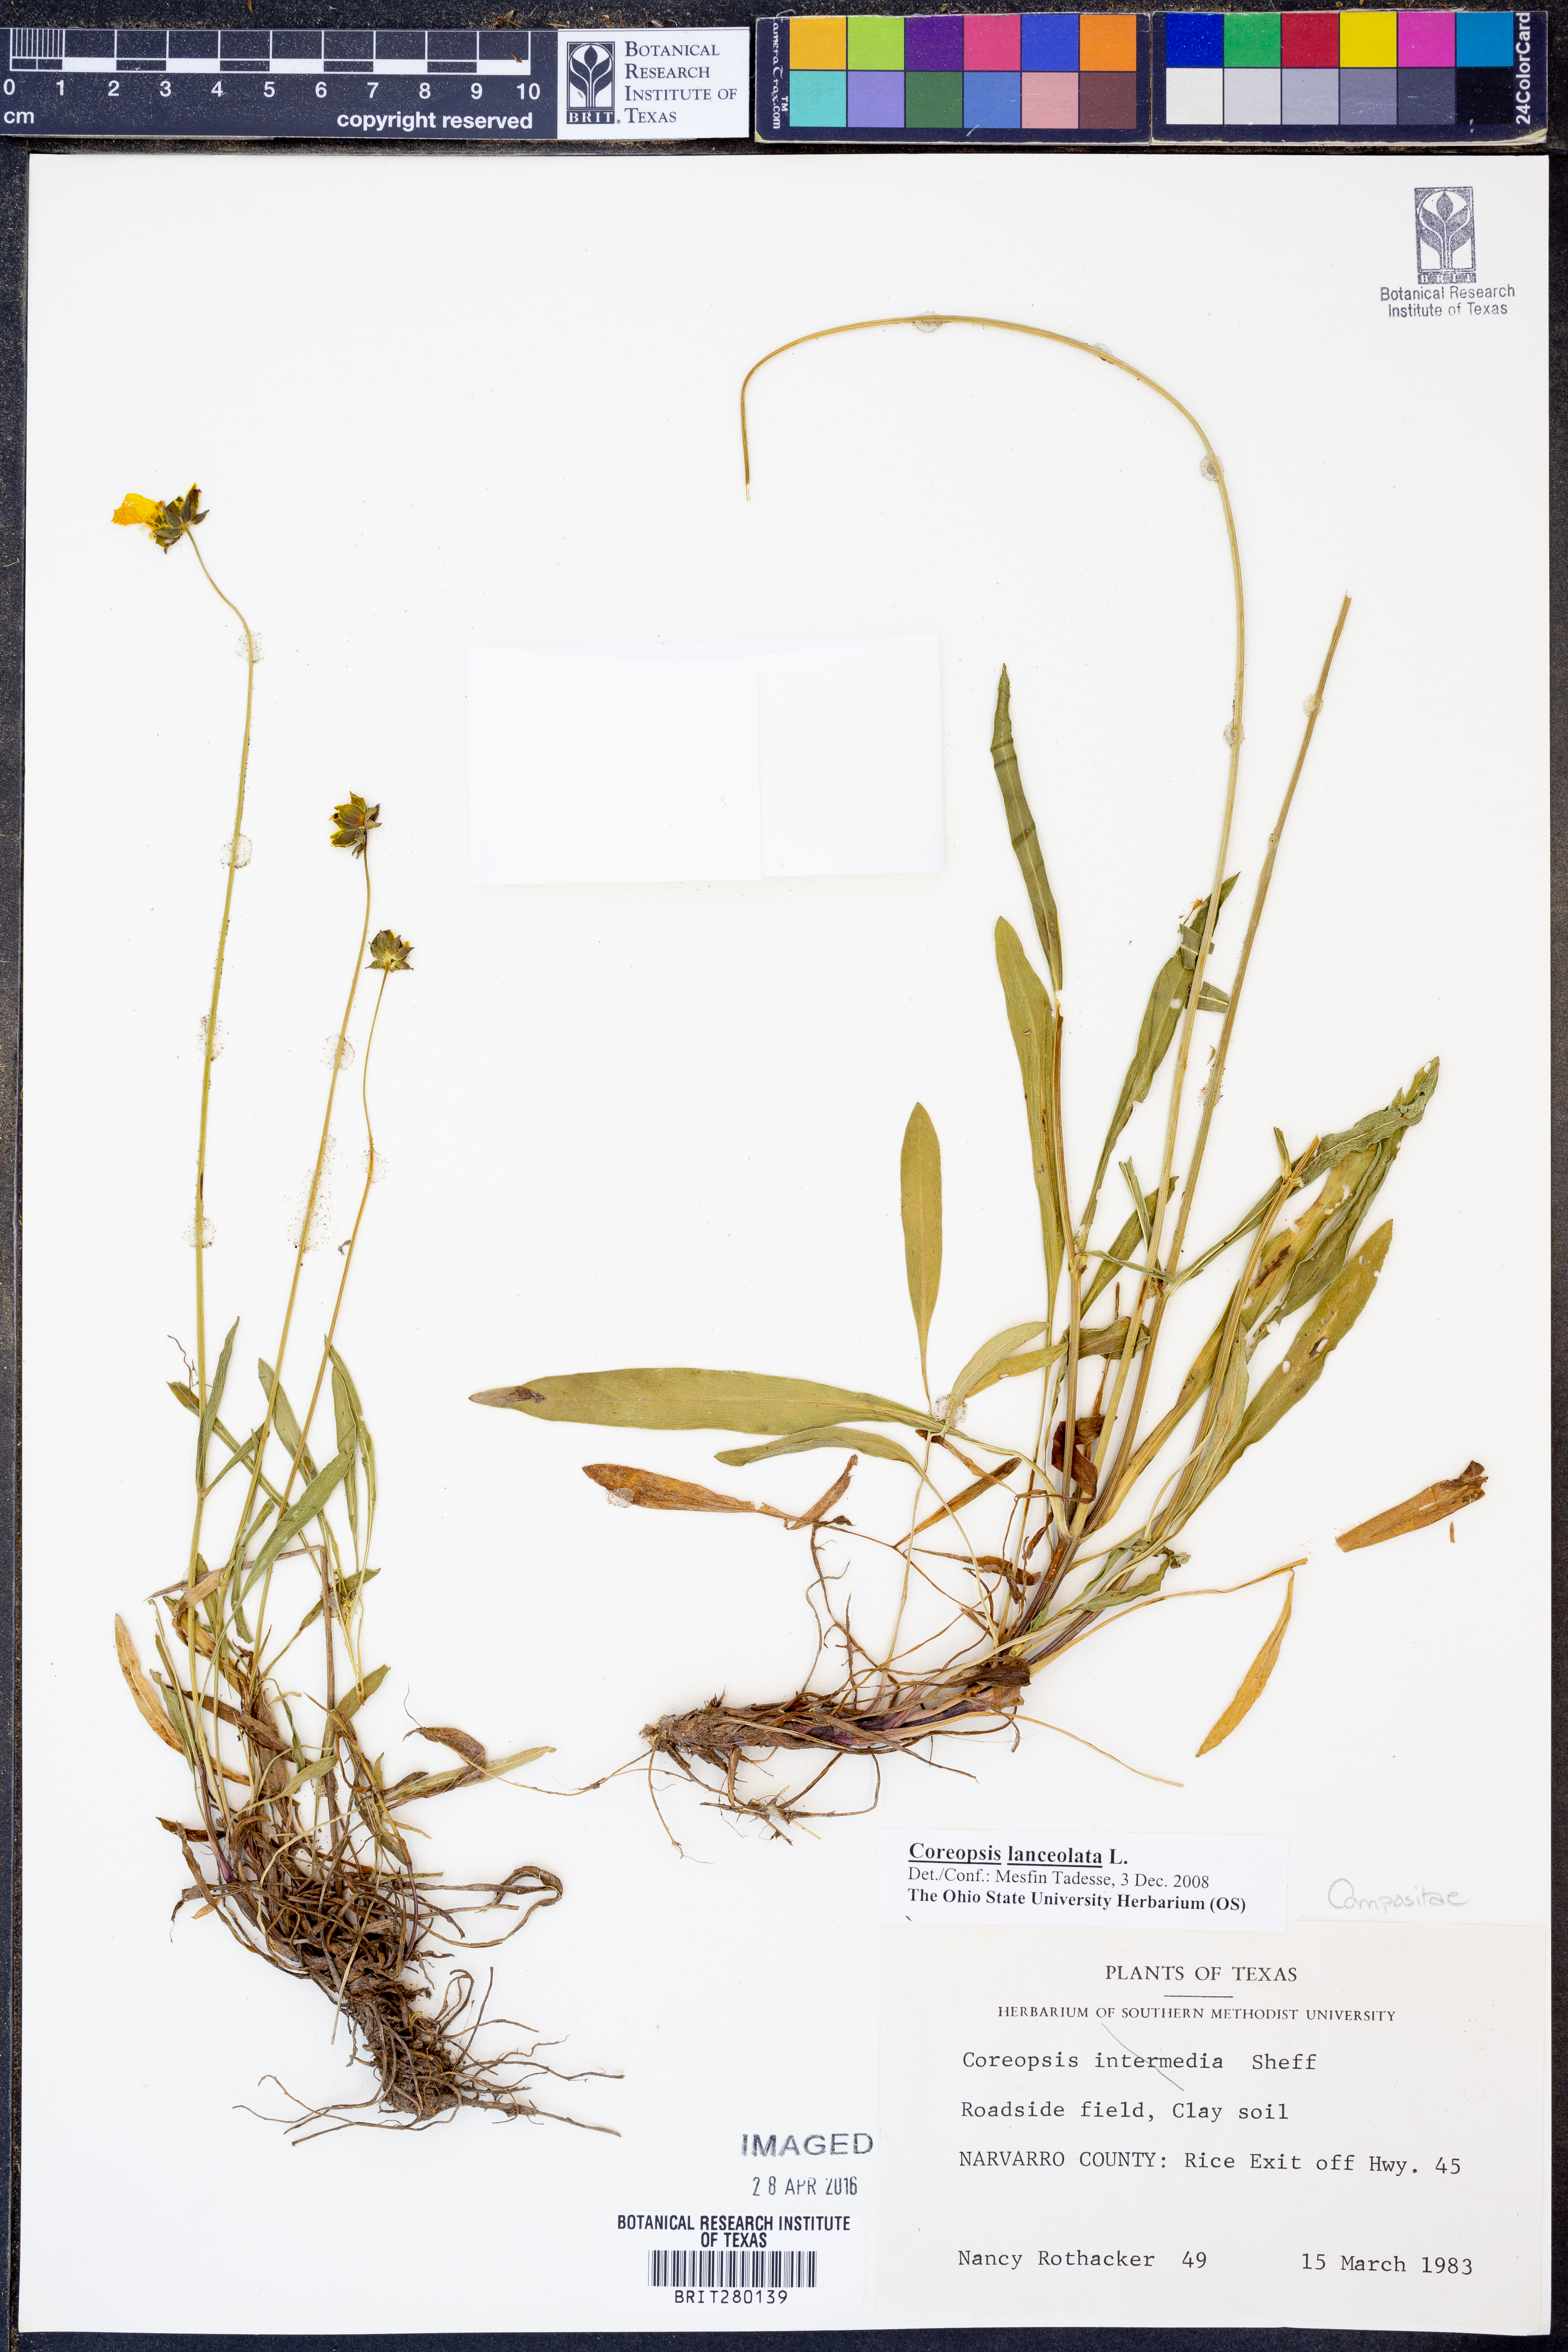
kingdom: Plantae
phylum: Tracheophyta
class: Magnoliopsida
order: Asterales
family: Asteraceae
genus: Coreopsis
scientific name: Coreopsis lanceolata
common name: Garden coreopsis
